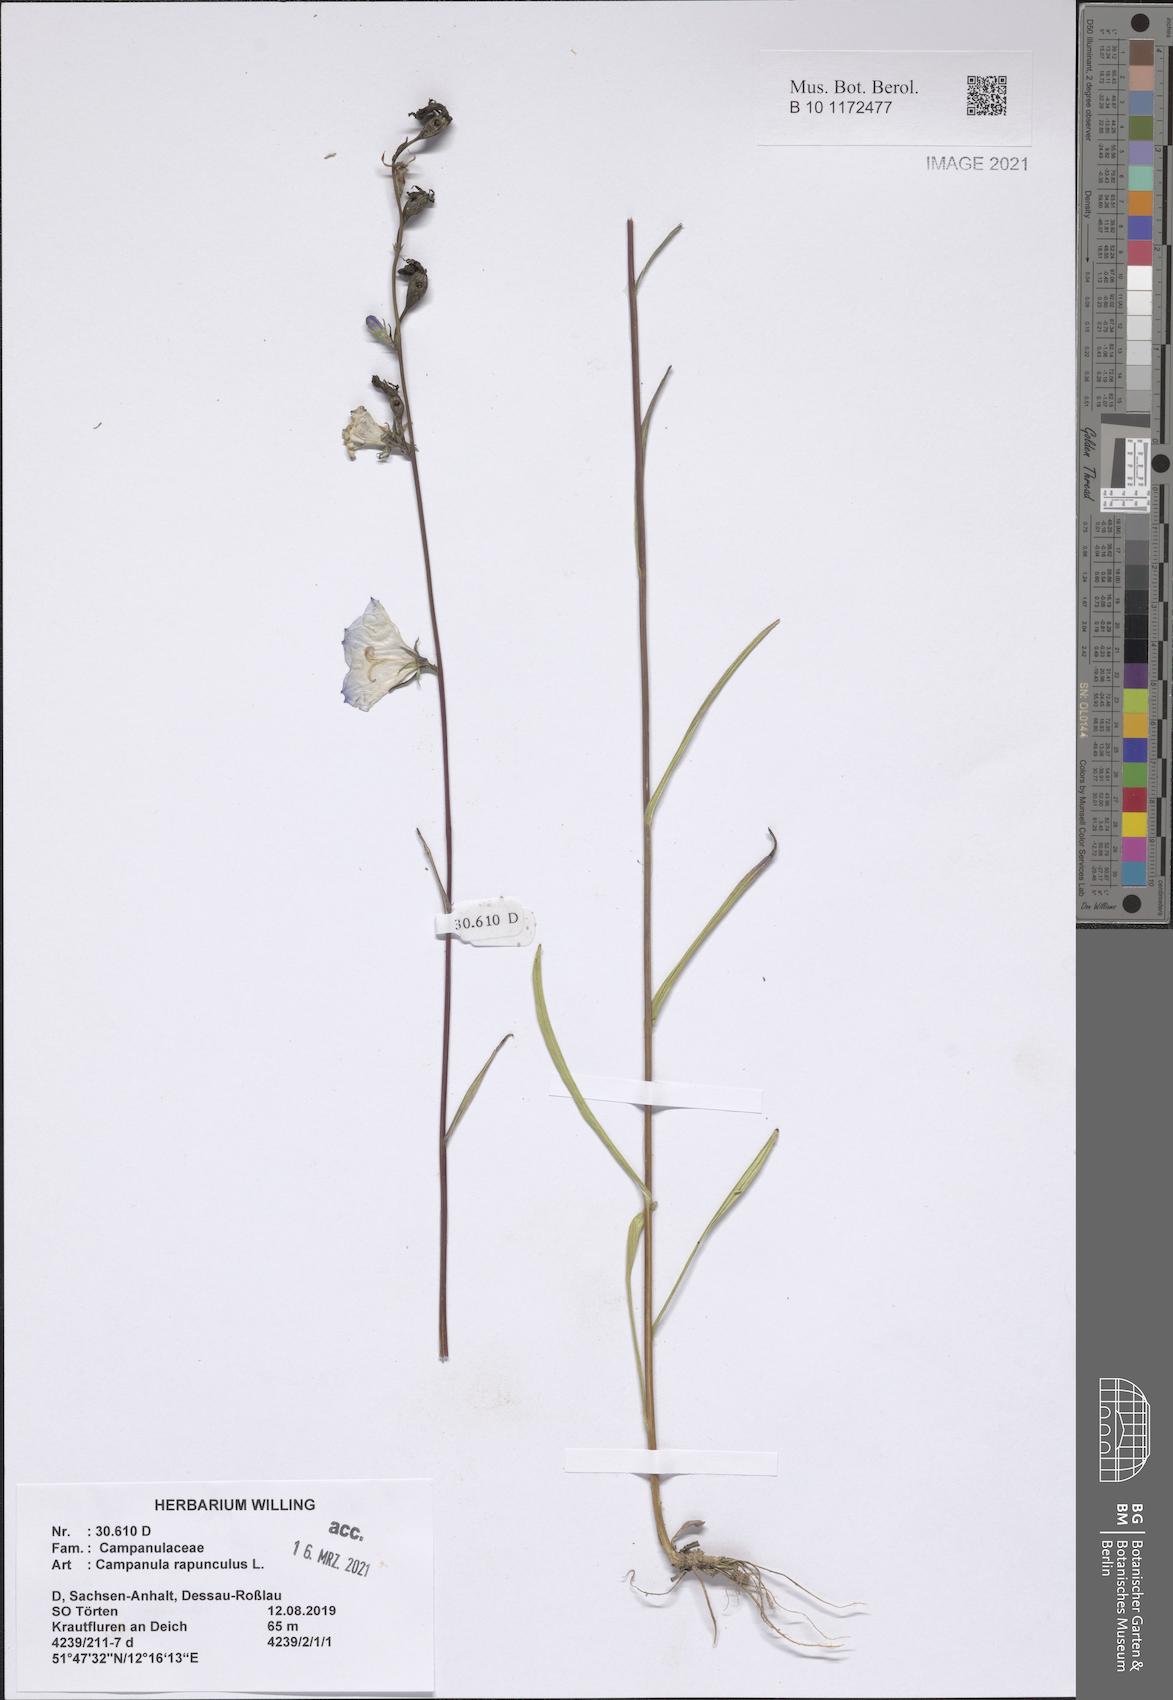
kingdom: Plantae
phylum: Tracheophyta
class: Magnoliopsida
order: Asterales
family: Campanulaceae
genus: Campanula
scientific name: Campanula rapunculus
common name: Rampion bellflower
